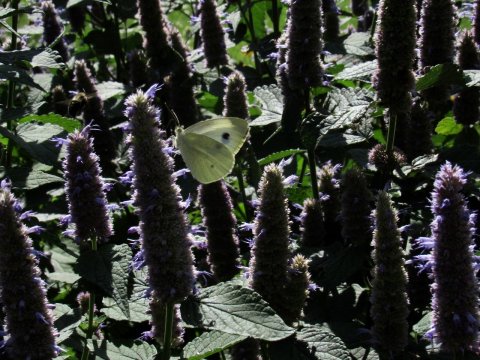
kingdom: Animalia
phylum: Arthropoda
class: Insecta
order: Lepidoptera
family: Pieridae
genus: Pieris
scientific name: Pieris rapae
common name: Cabbage White
